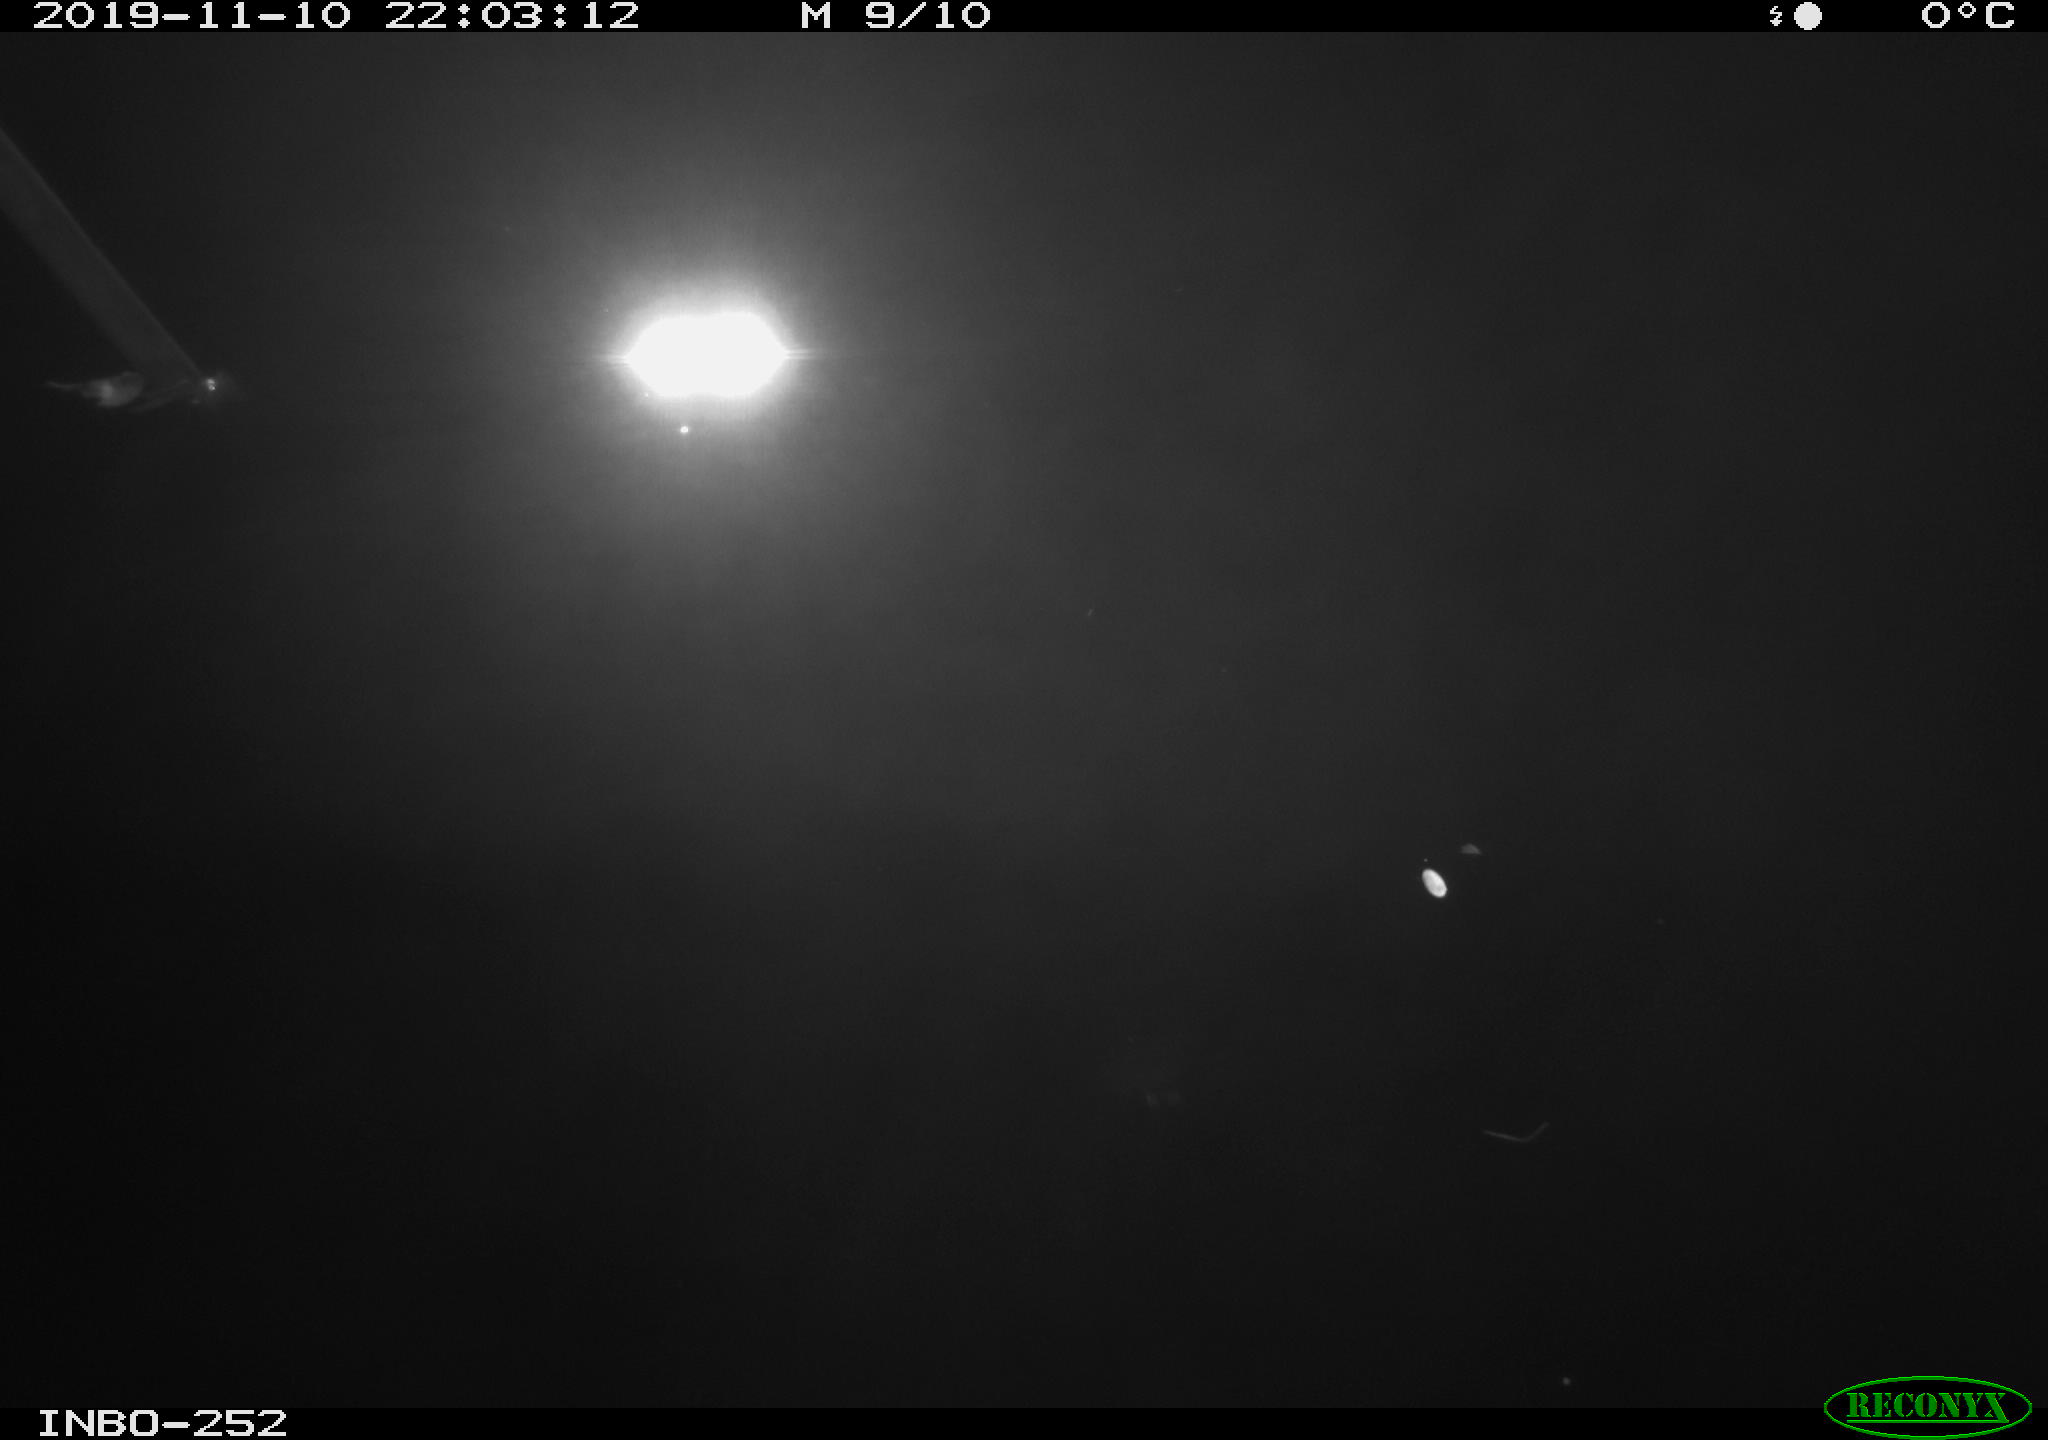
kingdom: Animalia
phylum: Chordata
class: Aves
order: Anseriformes
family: Anatidae
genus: Anas
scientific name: Anas platyrhynchos
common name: Mallard
